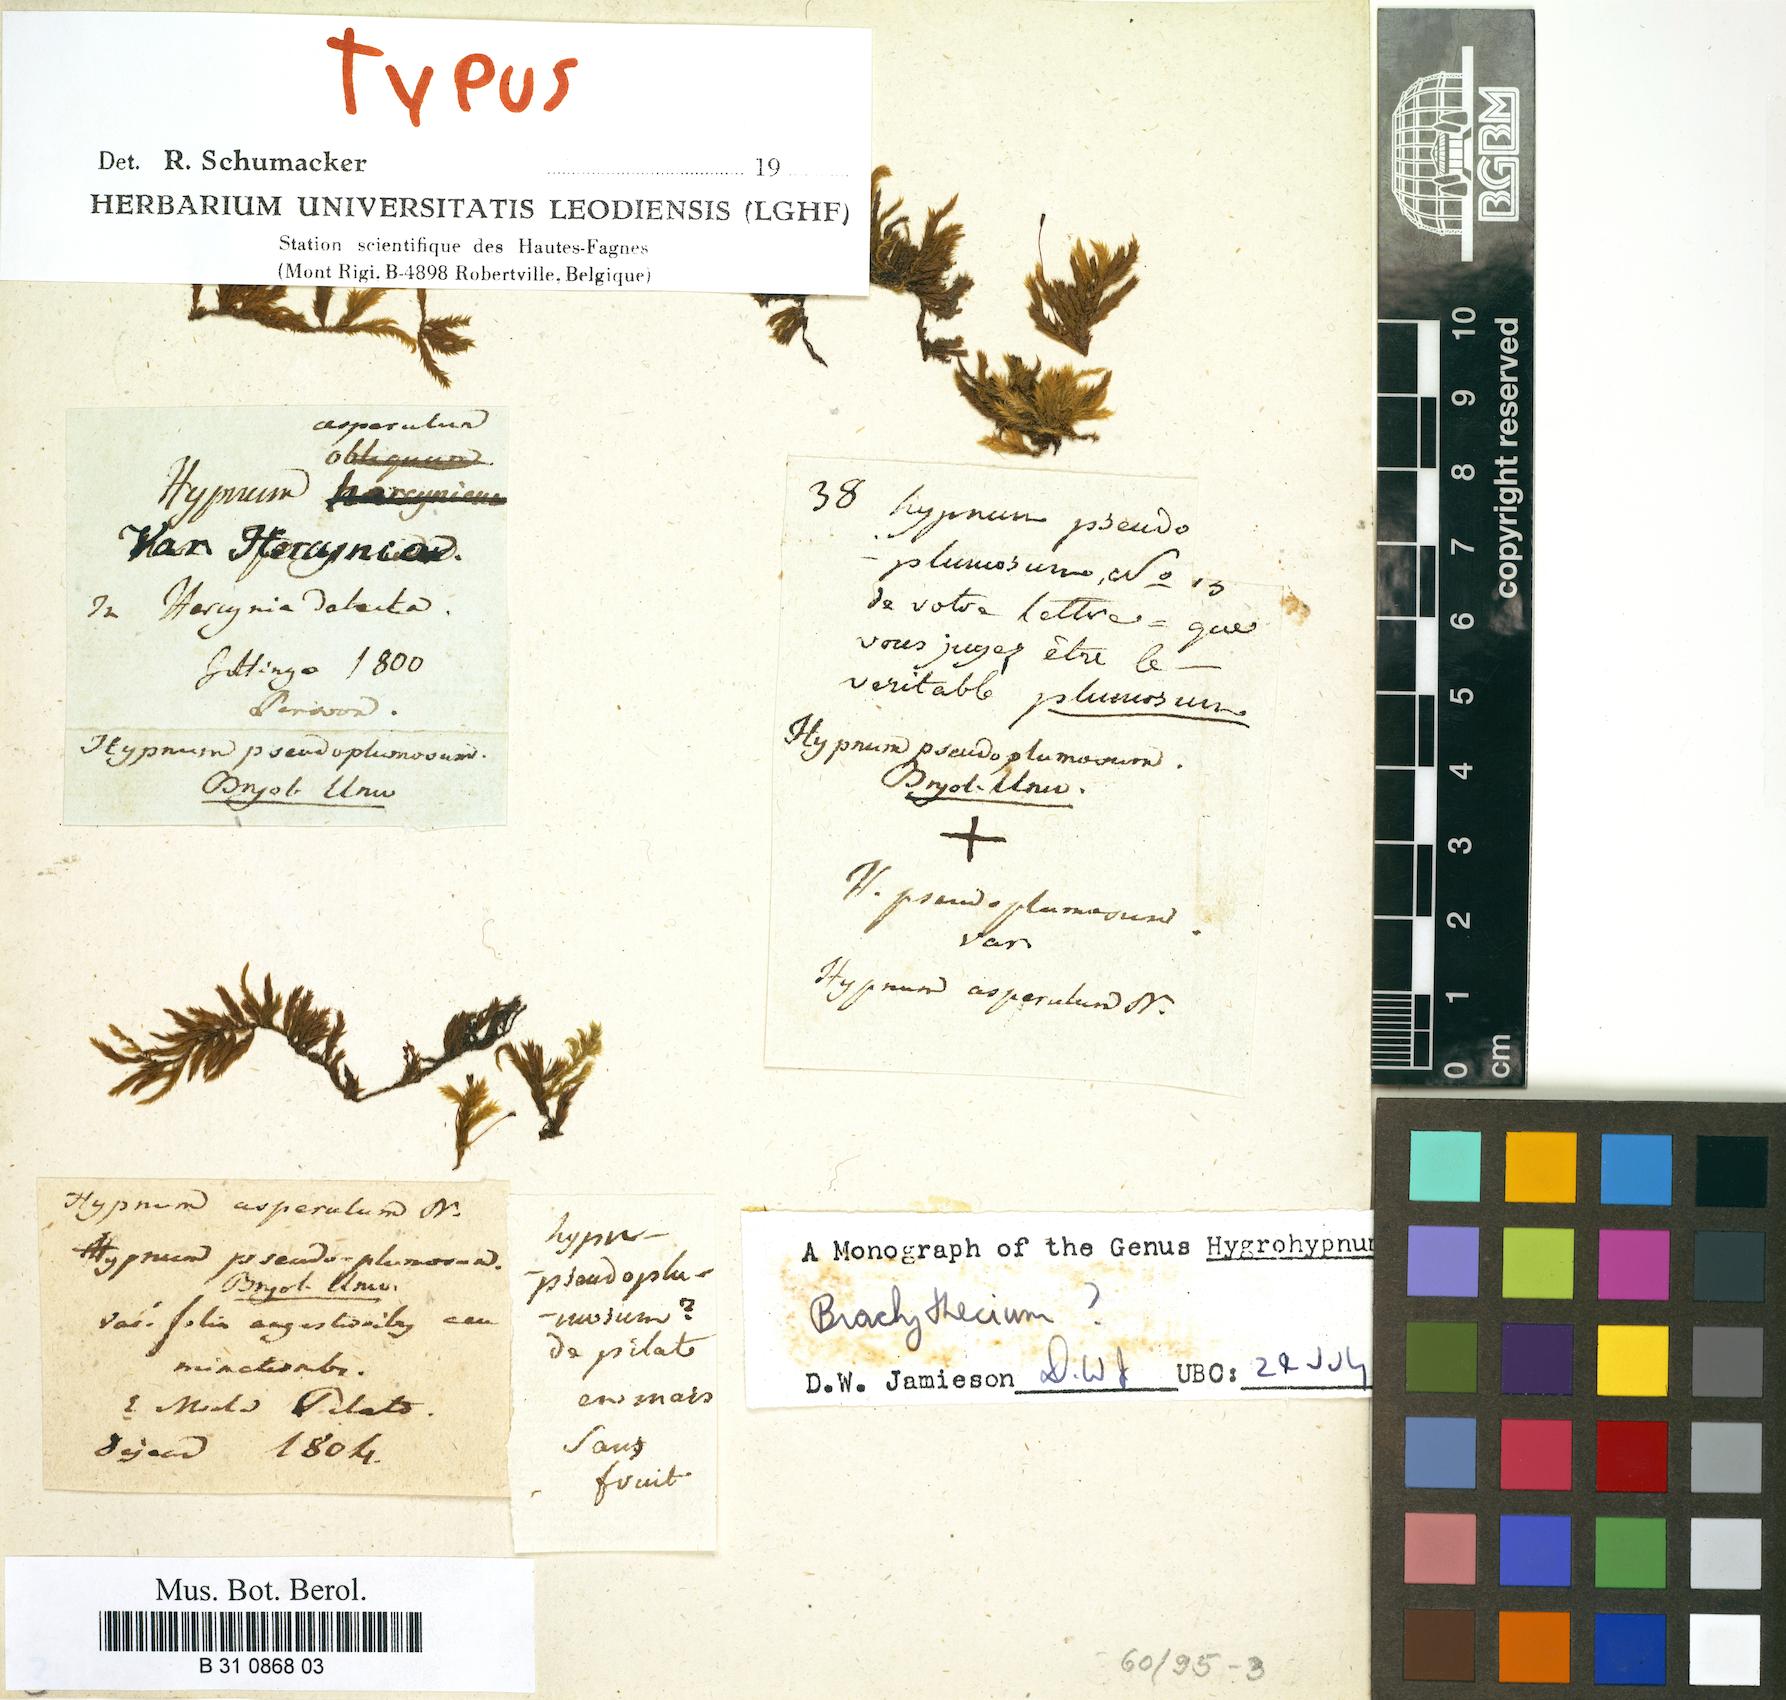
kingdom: Plantae
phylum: Bryophyta
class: Bryopsida
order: Hypnales
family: Brachytheciaceae
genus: Sciuro-hypnum
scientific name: Sciuro-hypnum plumosum
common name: Rusty feather-moss
